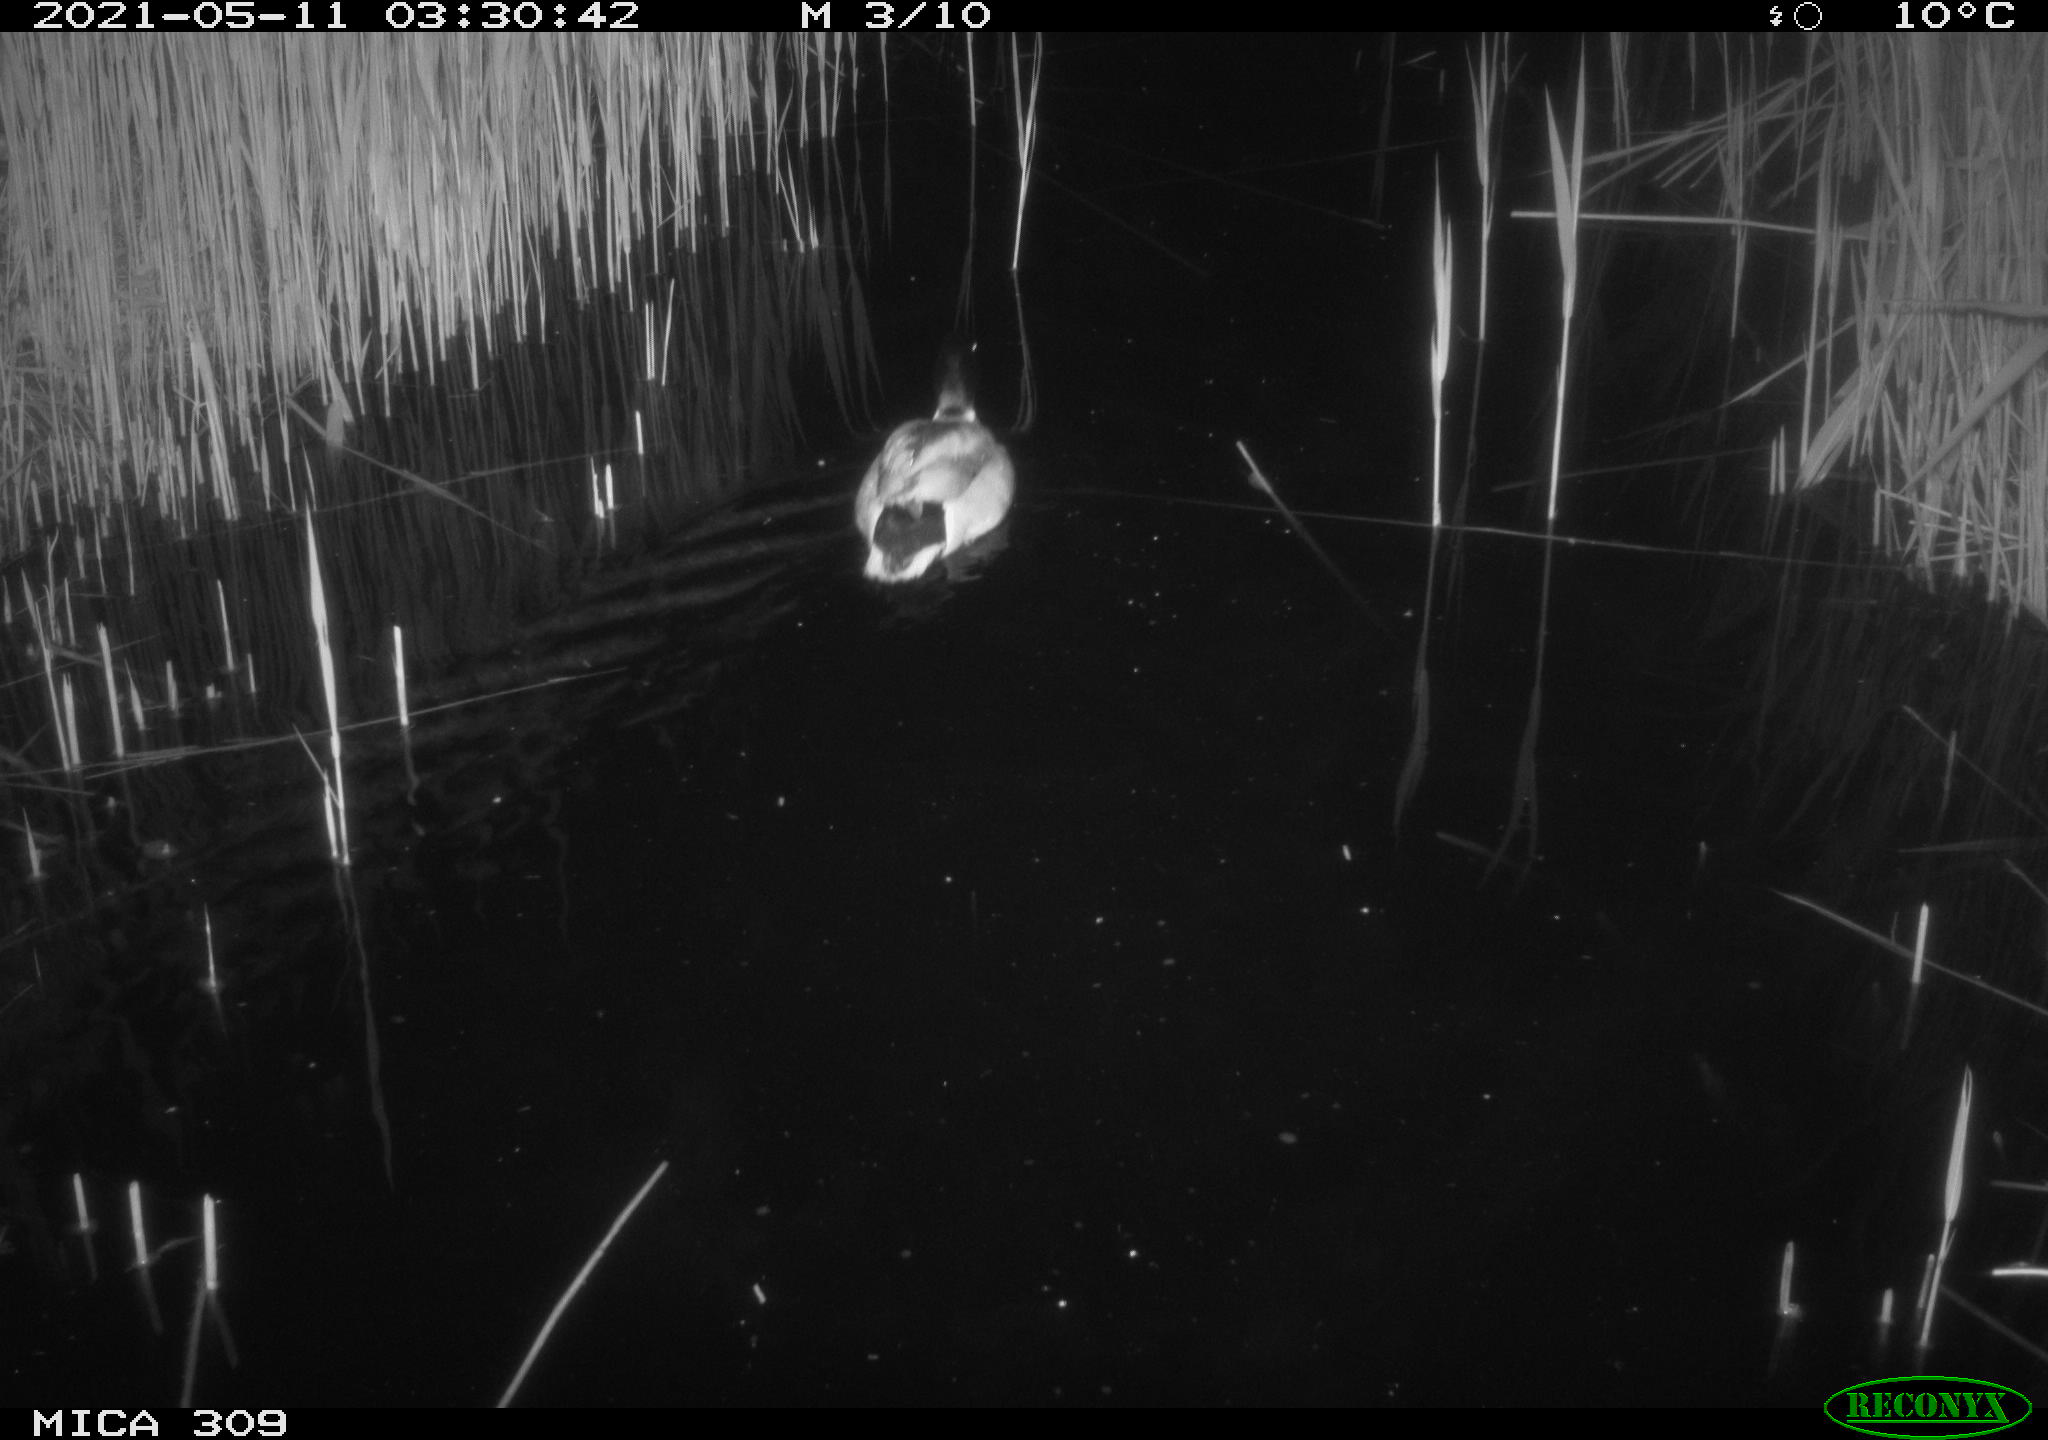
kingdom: Animalia
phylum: Chordata
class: Aves
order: Anseriformes
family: Anatidae
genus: Anas
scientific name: Anas platyrhynchos
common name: Mallard
